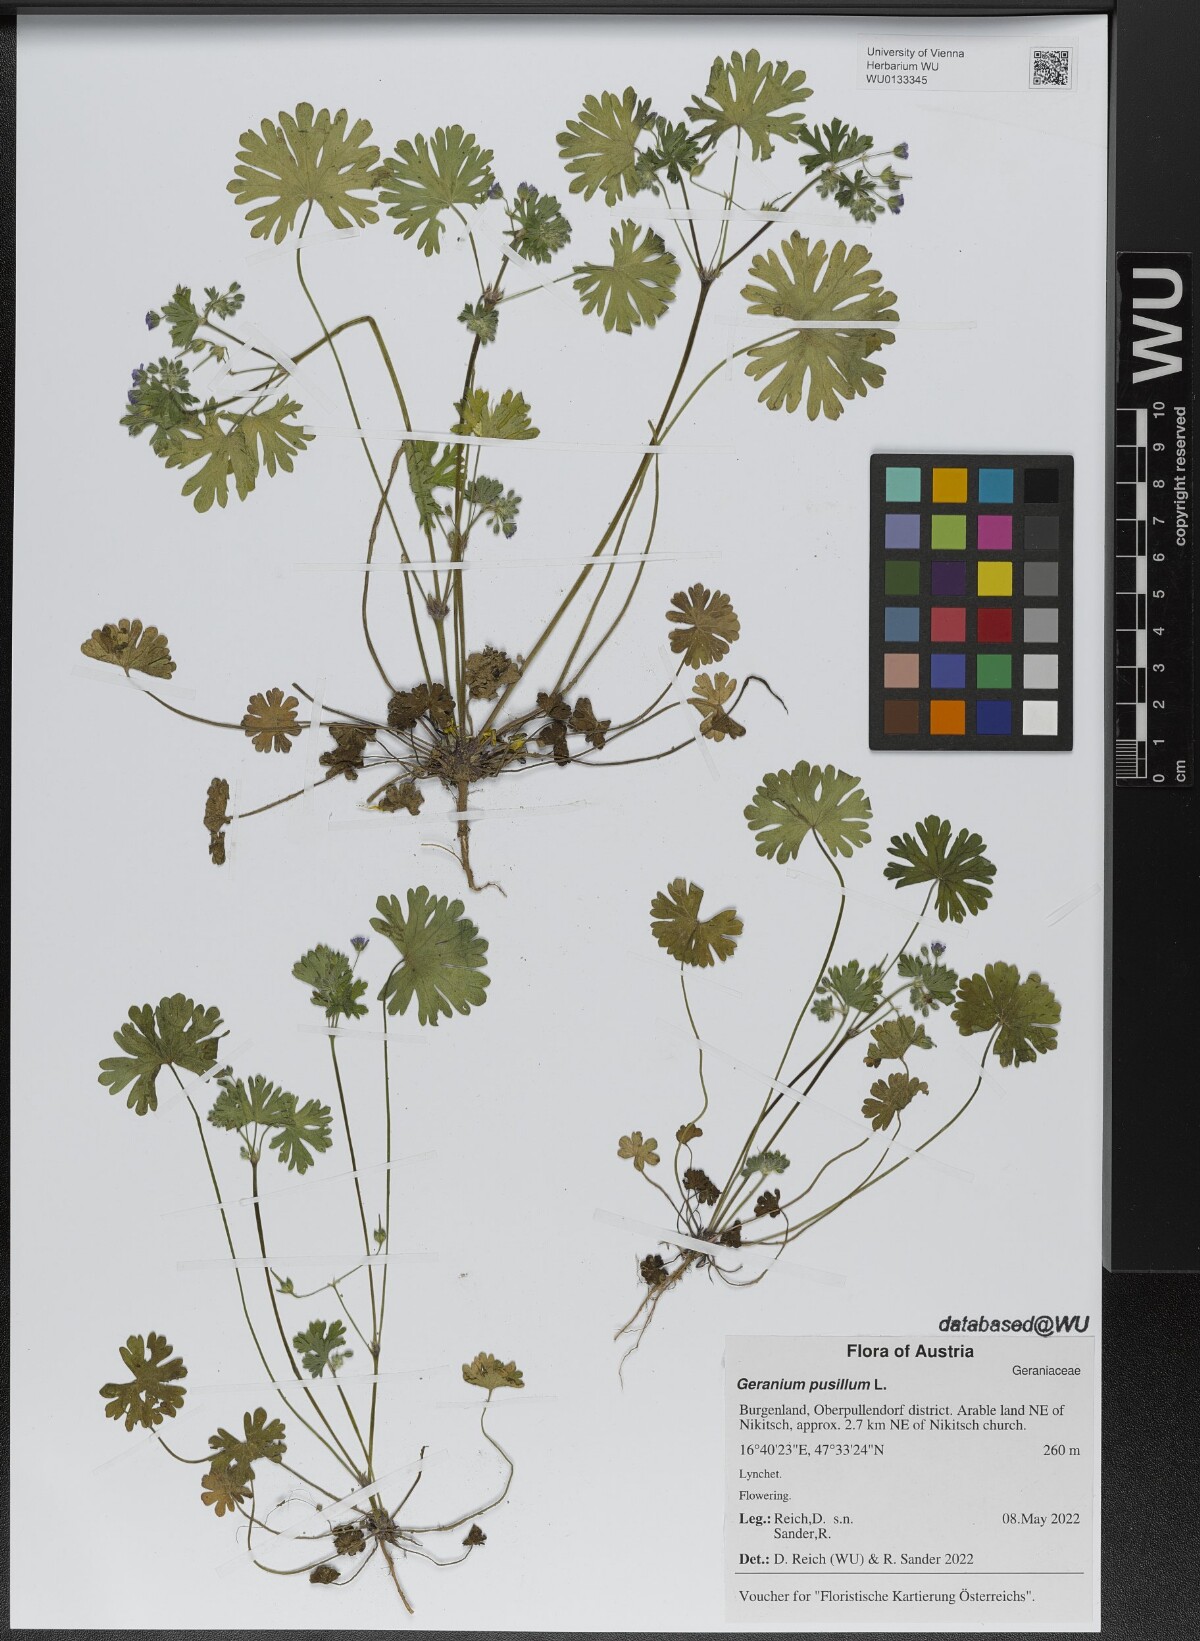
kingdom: Plantae
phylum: Tracheophyta
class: Magnoliopsida
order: Geraniales
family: Geraniaceae
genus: Geranium
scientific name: Geranium pusillum
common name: Small geranium
